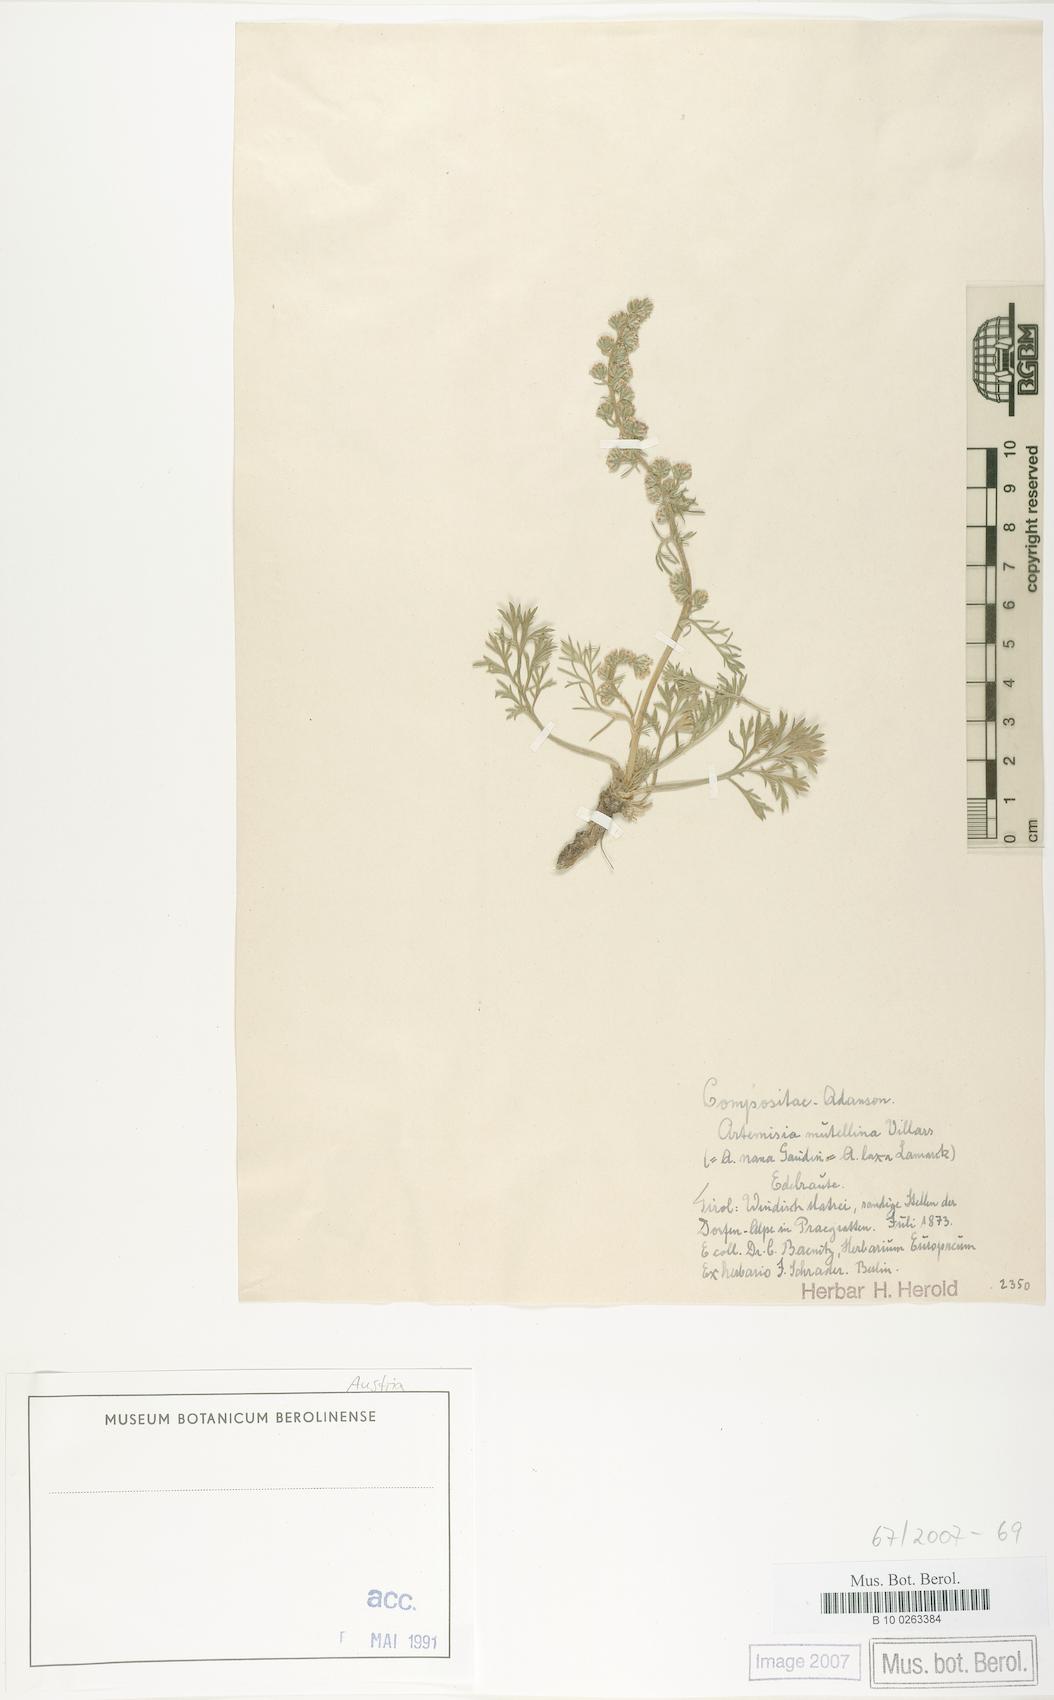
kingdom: Plantae
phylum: Tracheophyta
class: Magnoliopsida
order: Asterales
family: Asteraceae
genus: Artemisia
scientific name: Artemisia mutellina
